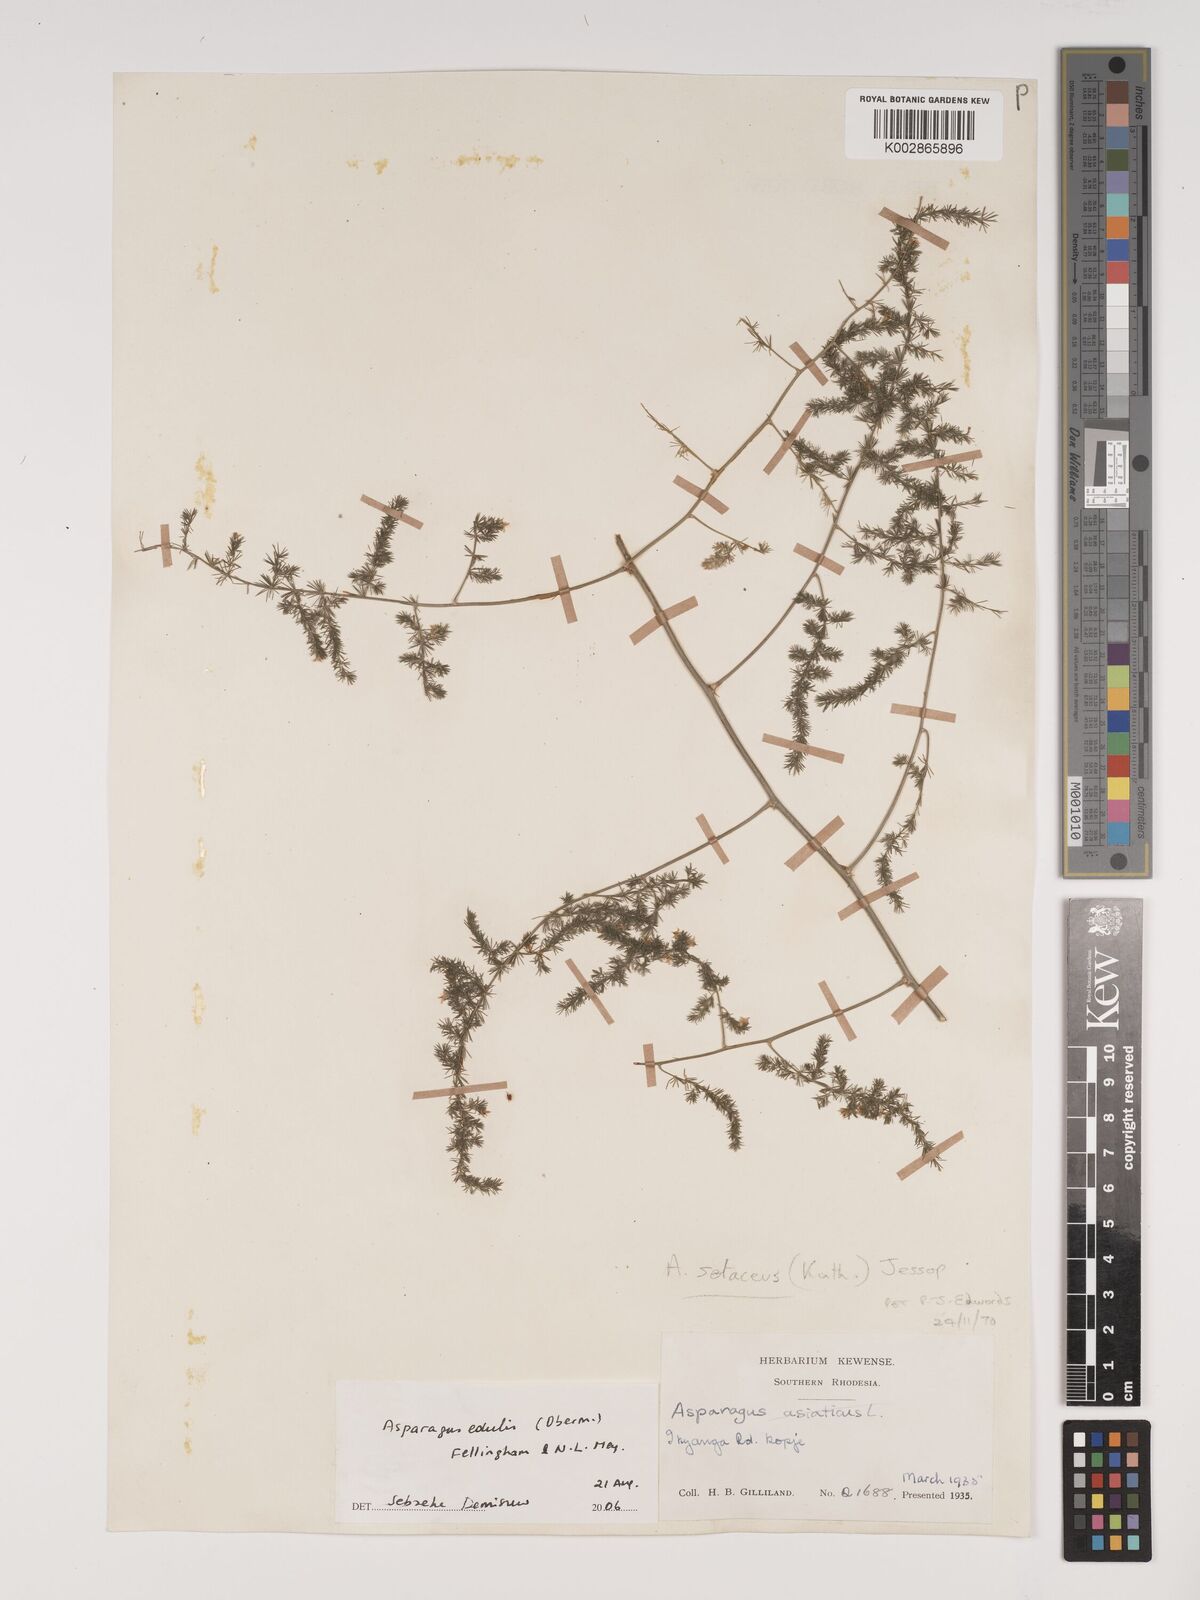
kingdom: Plantae
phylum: Tracheophyta
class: Liliopsida
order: Asparagales
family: Asparagaceae
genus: Asparagus
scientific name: Asparagus edulis
